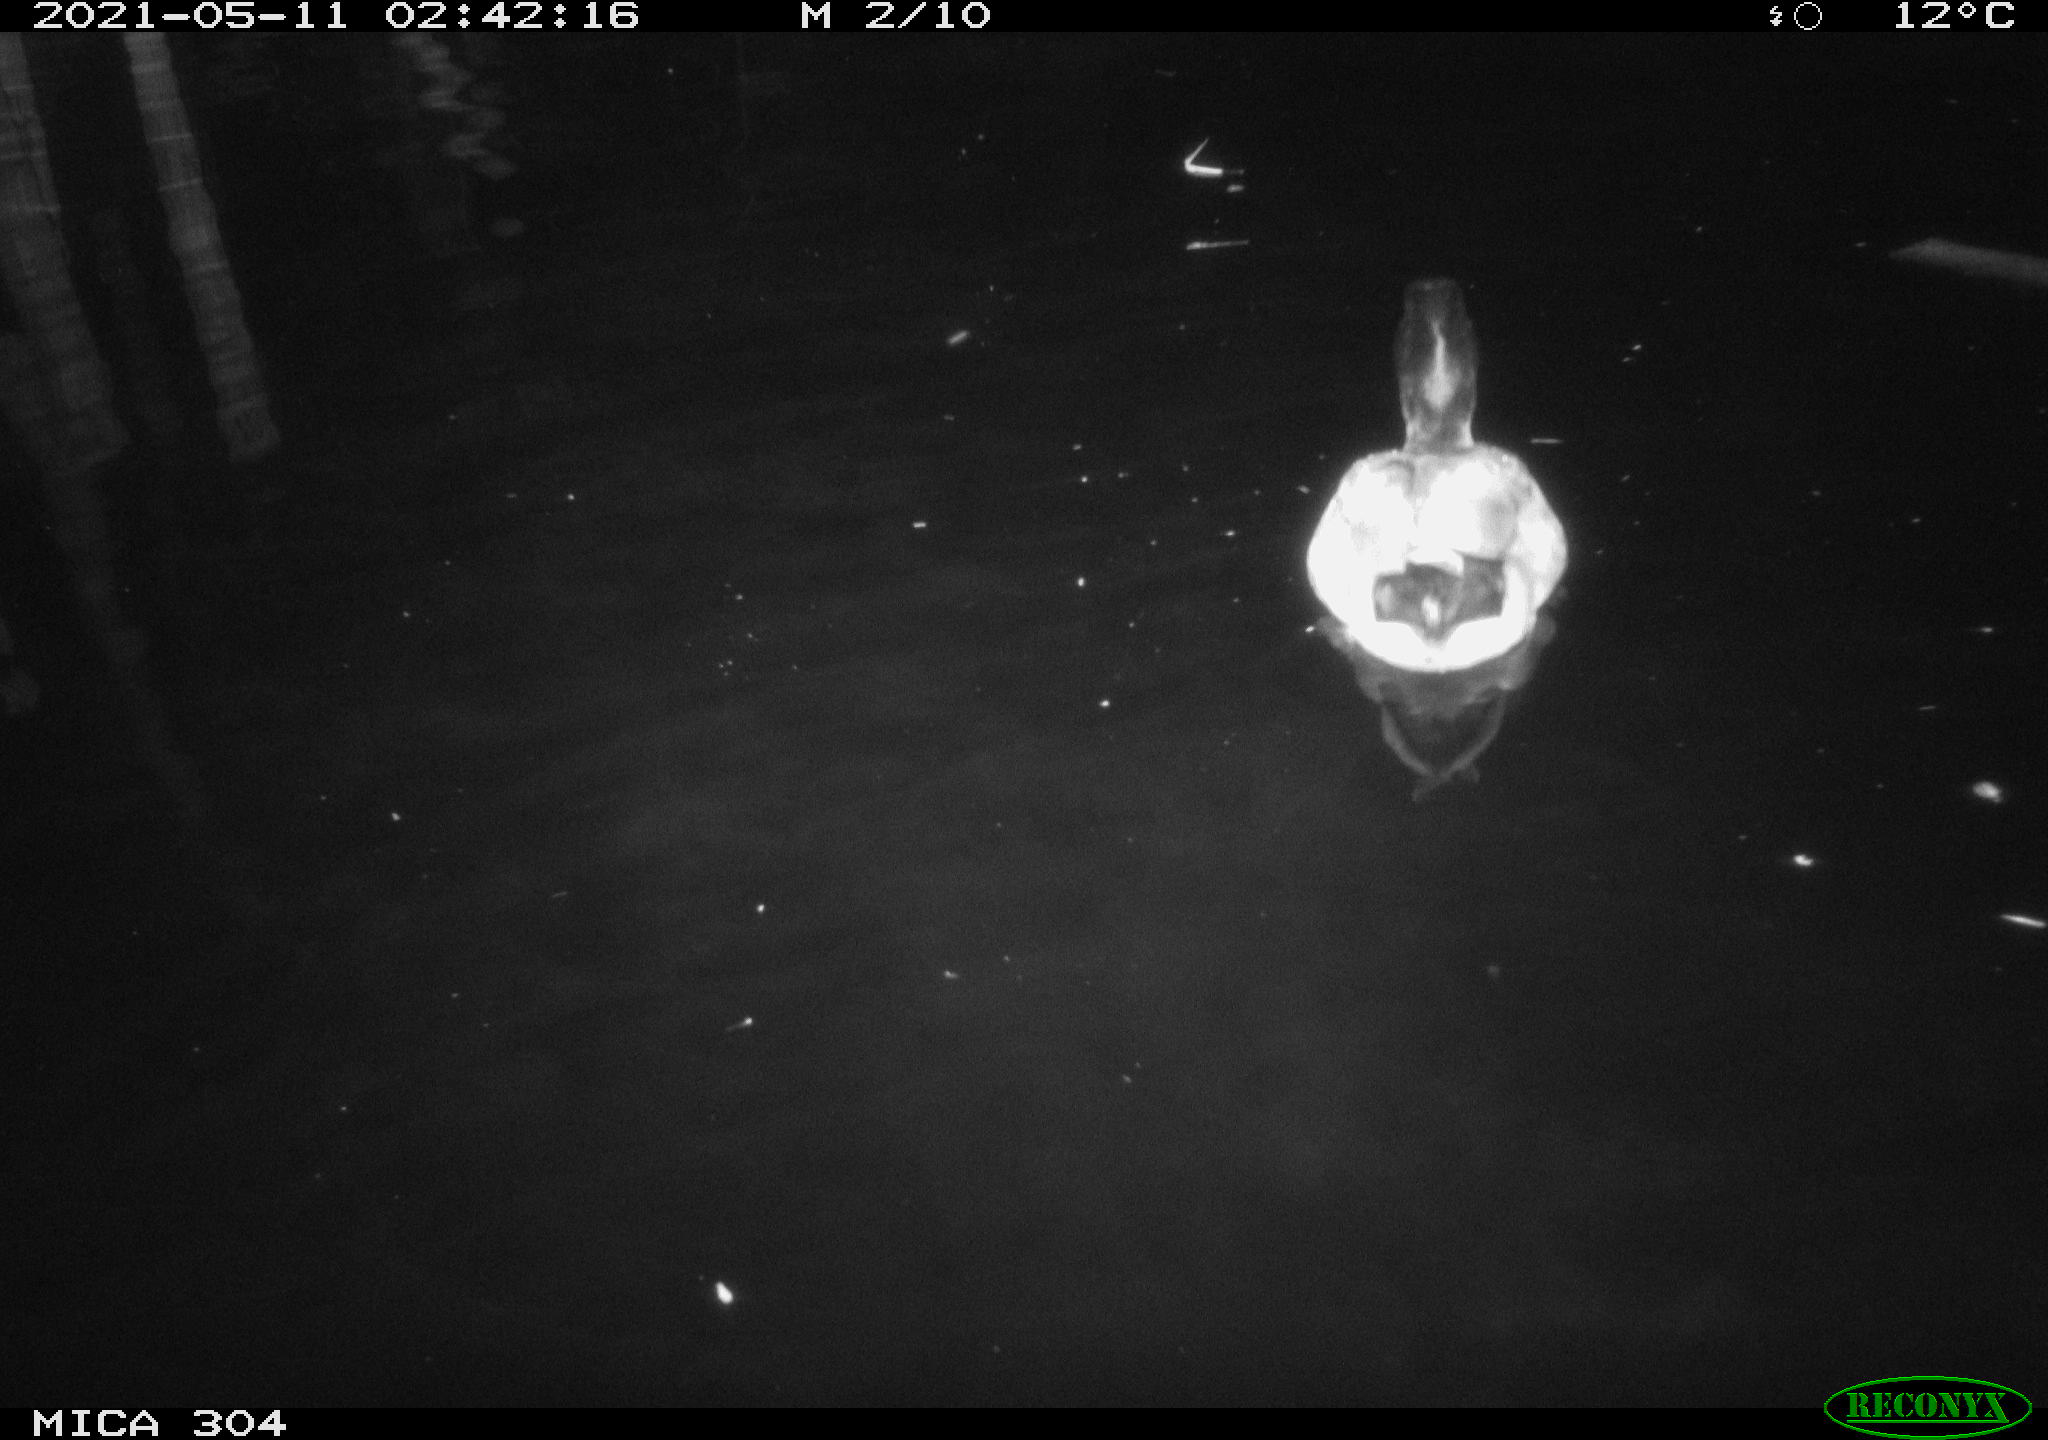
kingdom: Animalia
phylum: Chordata
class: Aves
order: Anseriformes
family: Anatidae
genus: Anas
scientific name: Anas platyrhynchos
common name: Mallard
